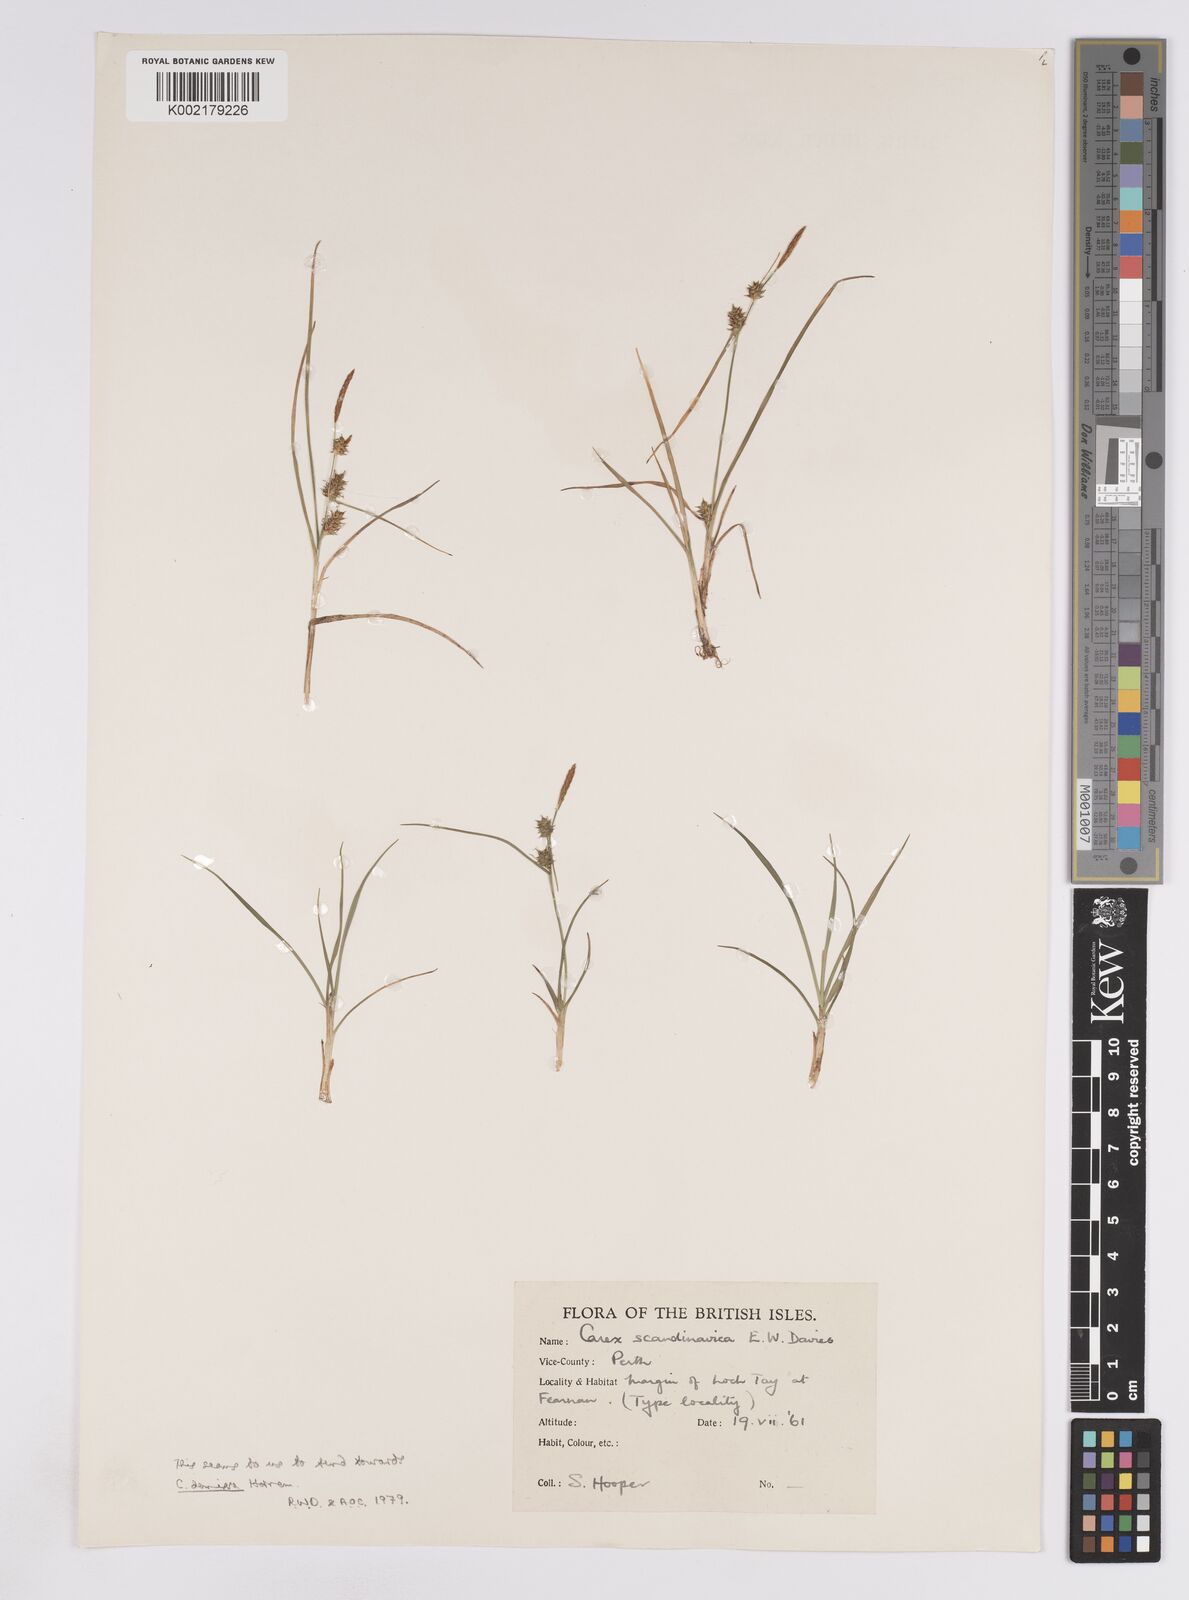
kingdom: Plantae
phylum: Tracheophyta
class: Liliopsida
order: Poales
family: Cyperaceae
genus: Carex
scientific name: Carex oederi
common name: Common & small-fruited yellow-sedge
